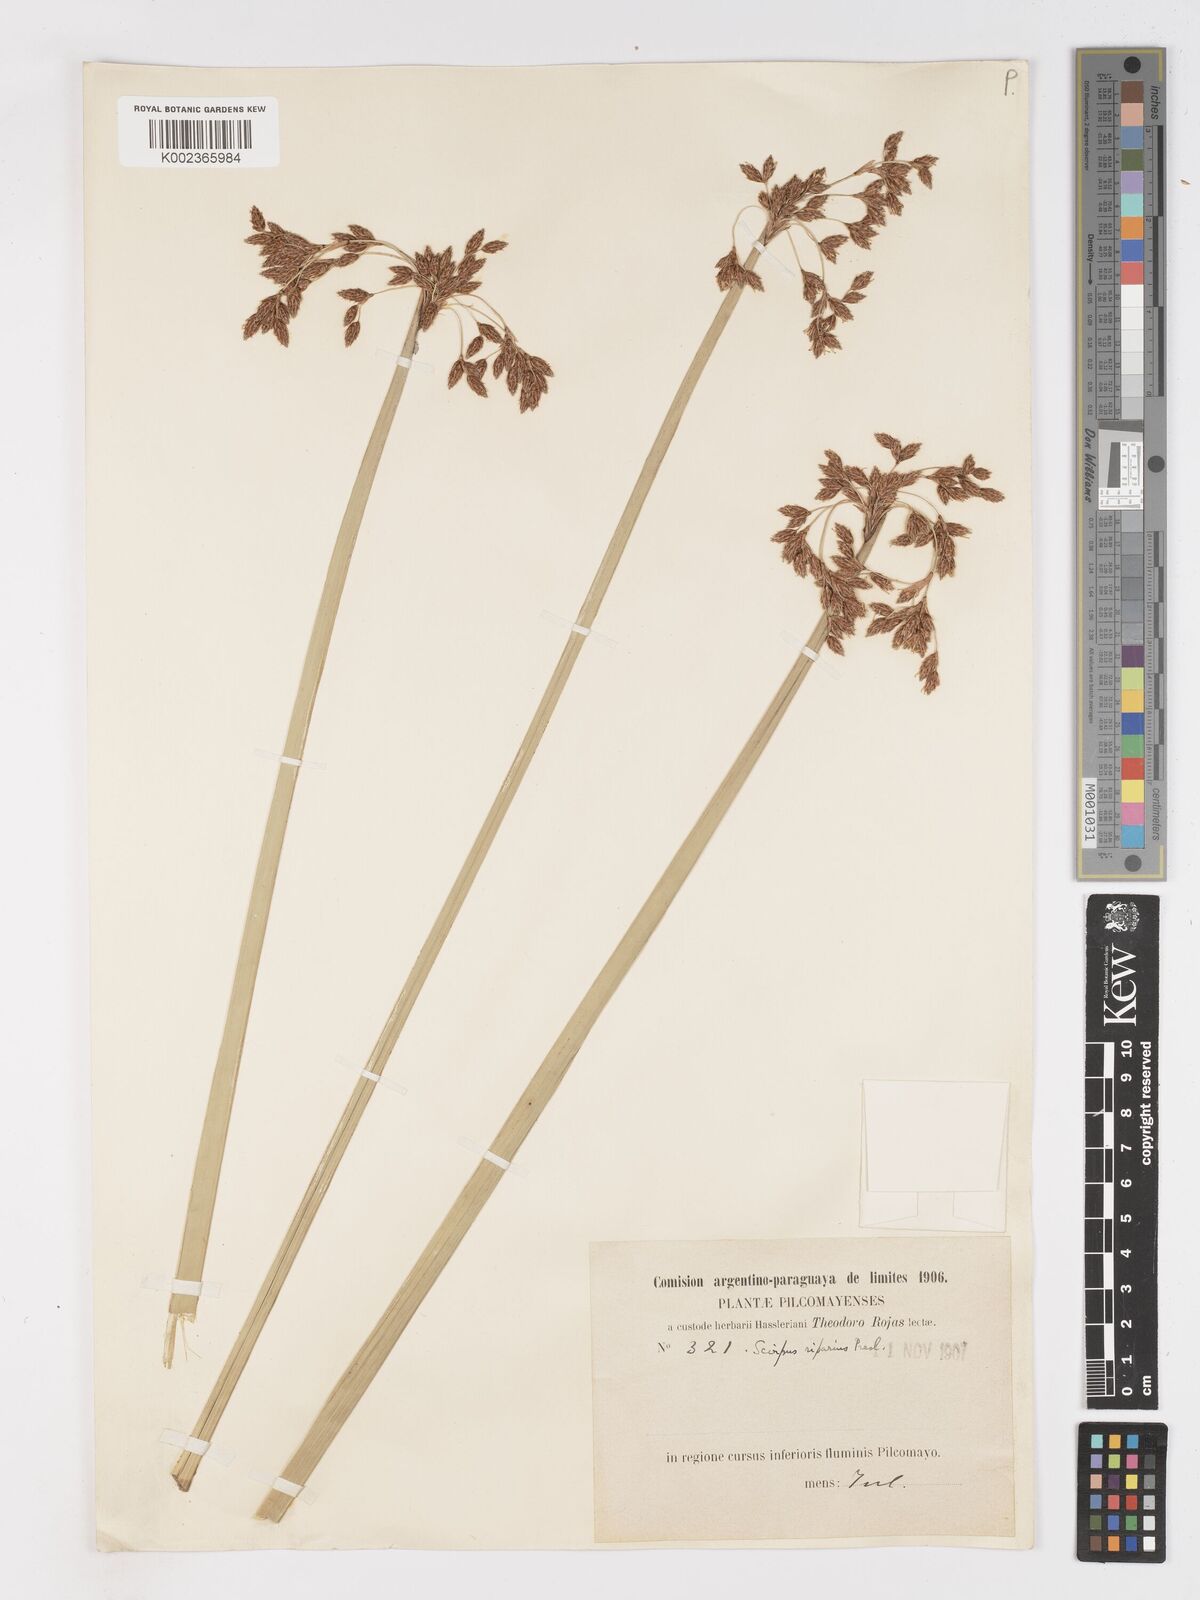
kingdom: Plantae
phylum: Tracheophyta
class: Liliopsida
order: Poales
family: Cyperaceae
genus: Schoenoplectus
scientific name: Schoenoplectus californicus
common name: California bulrush
